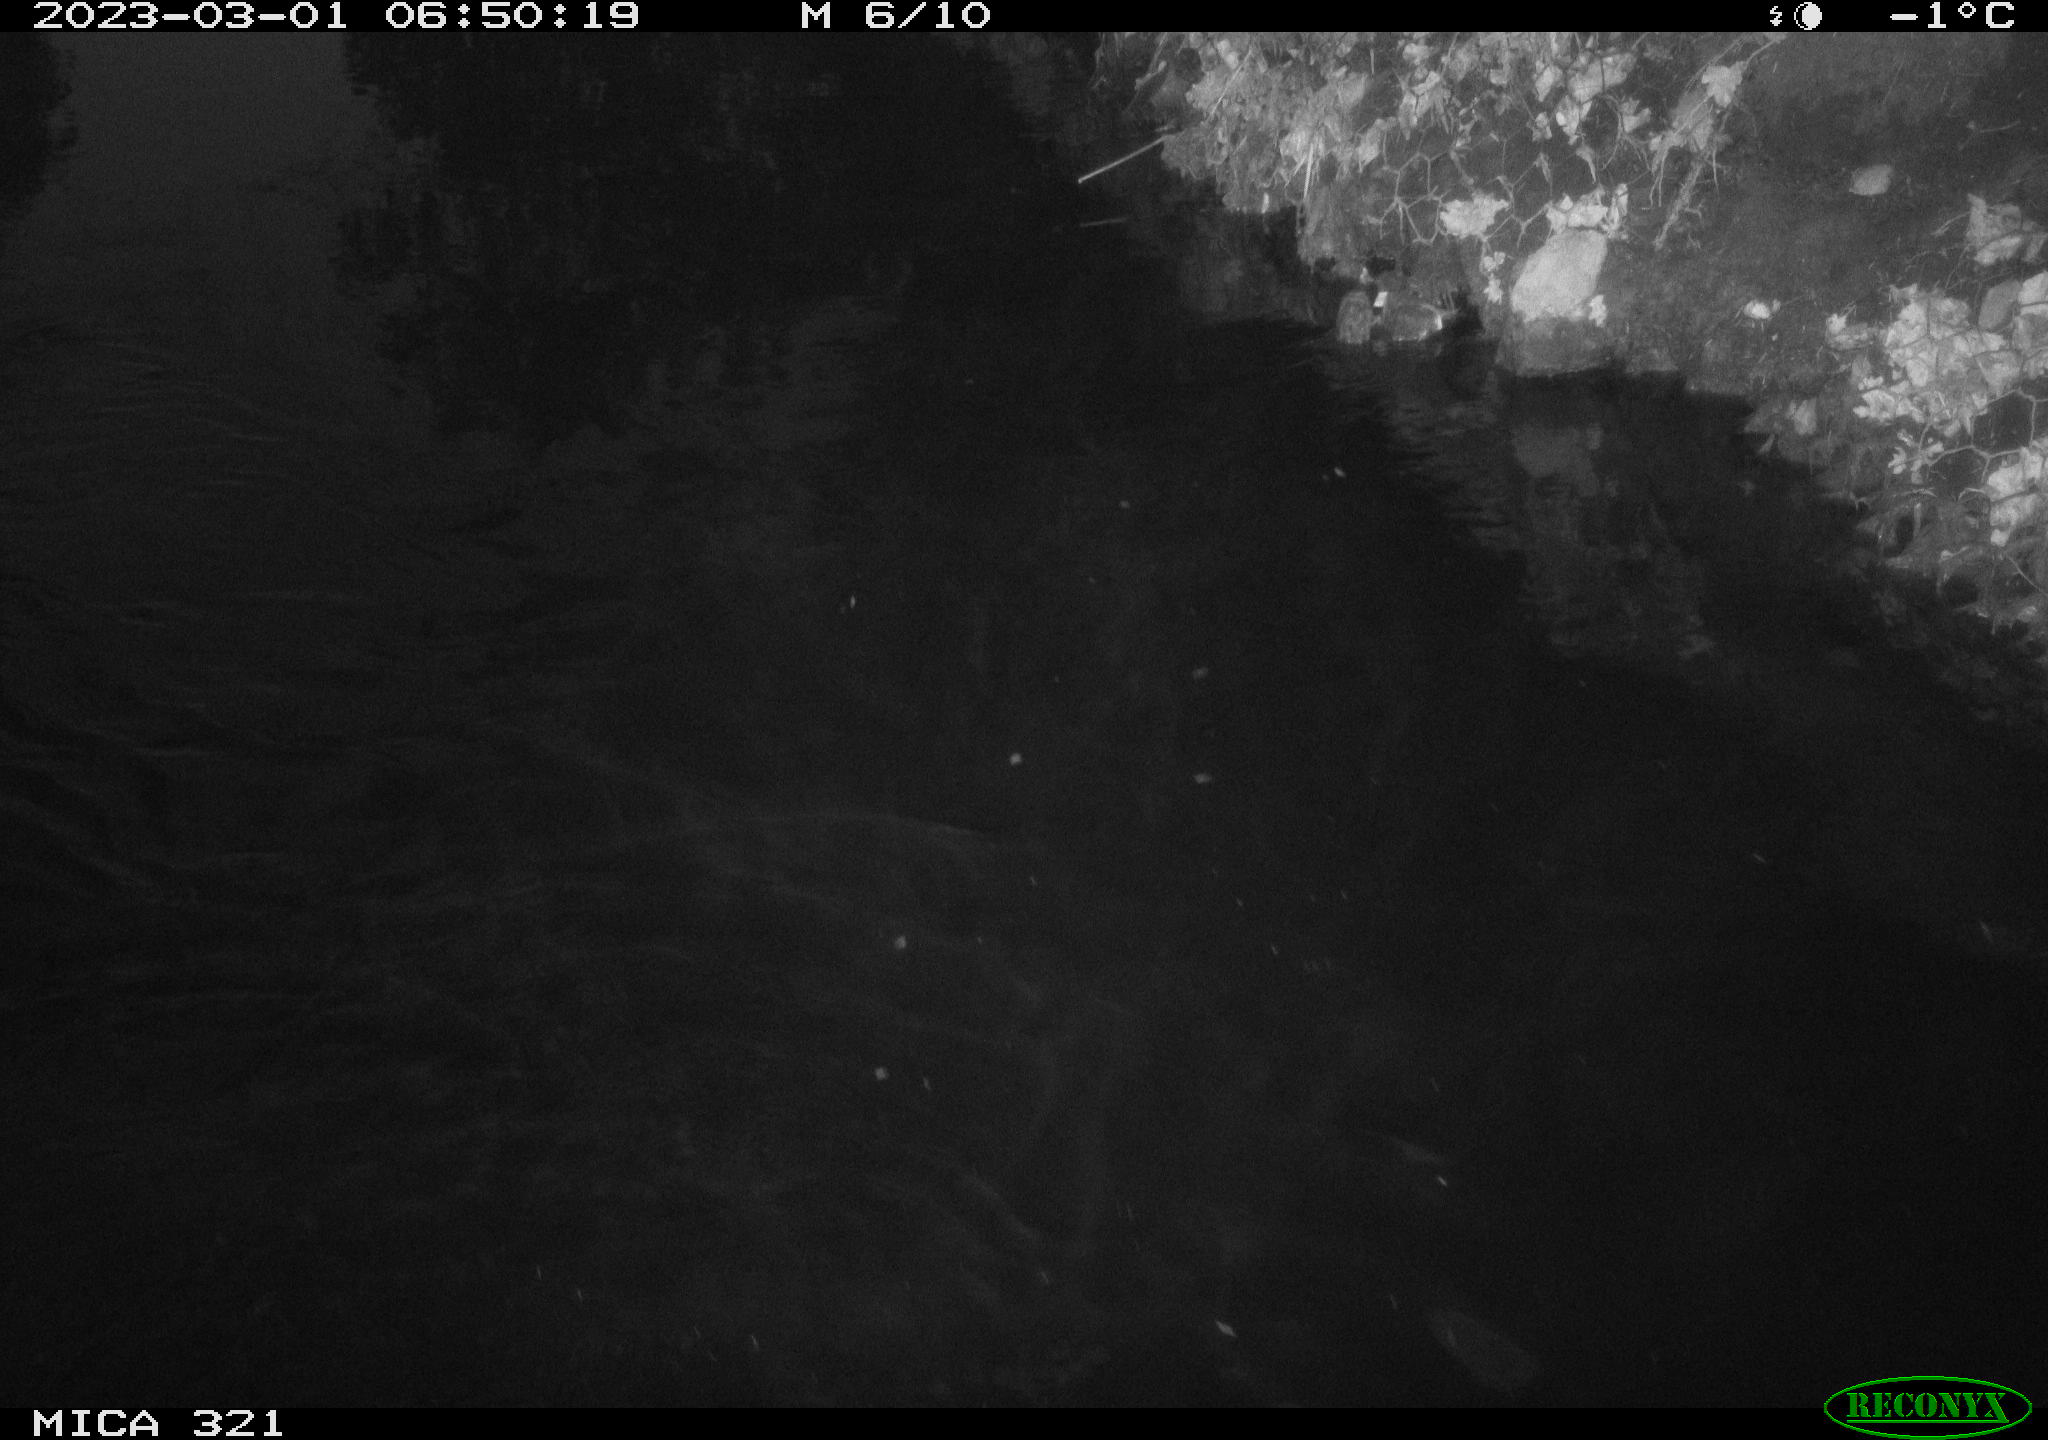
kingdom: Animalia
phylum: Chordata
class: Aves
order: Anseriformes
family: Anatidae
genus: Anas
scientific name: Anas
